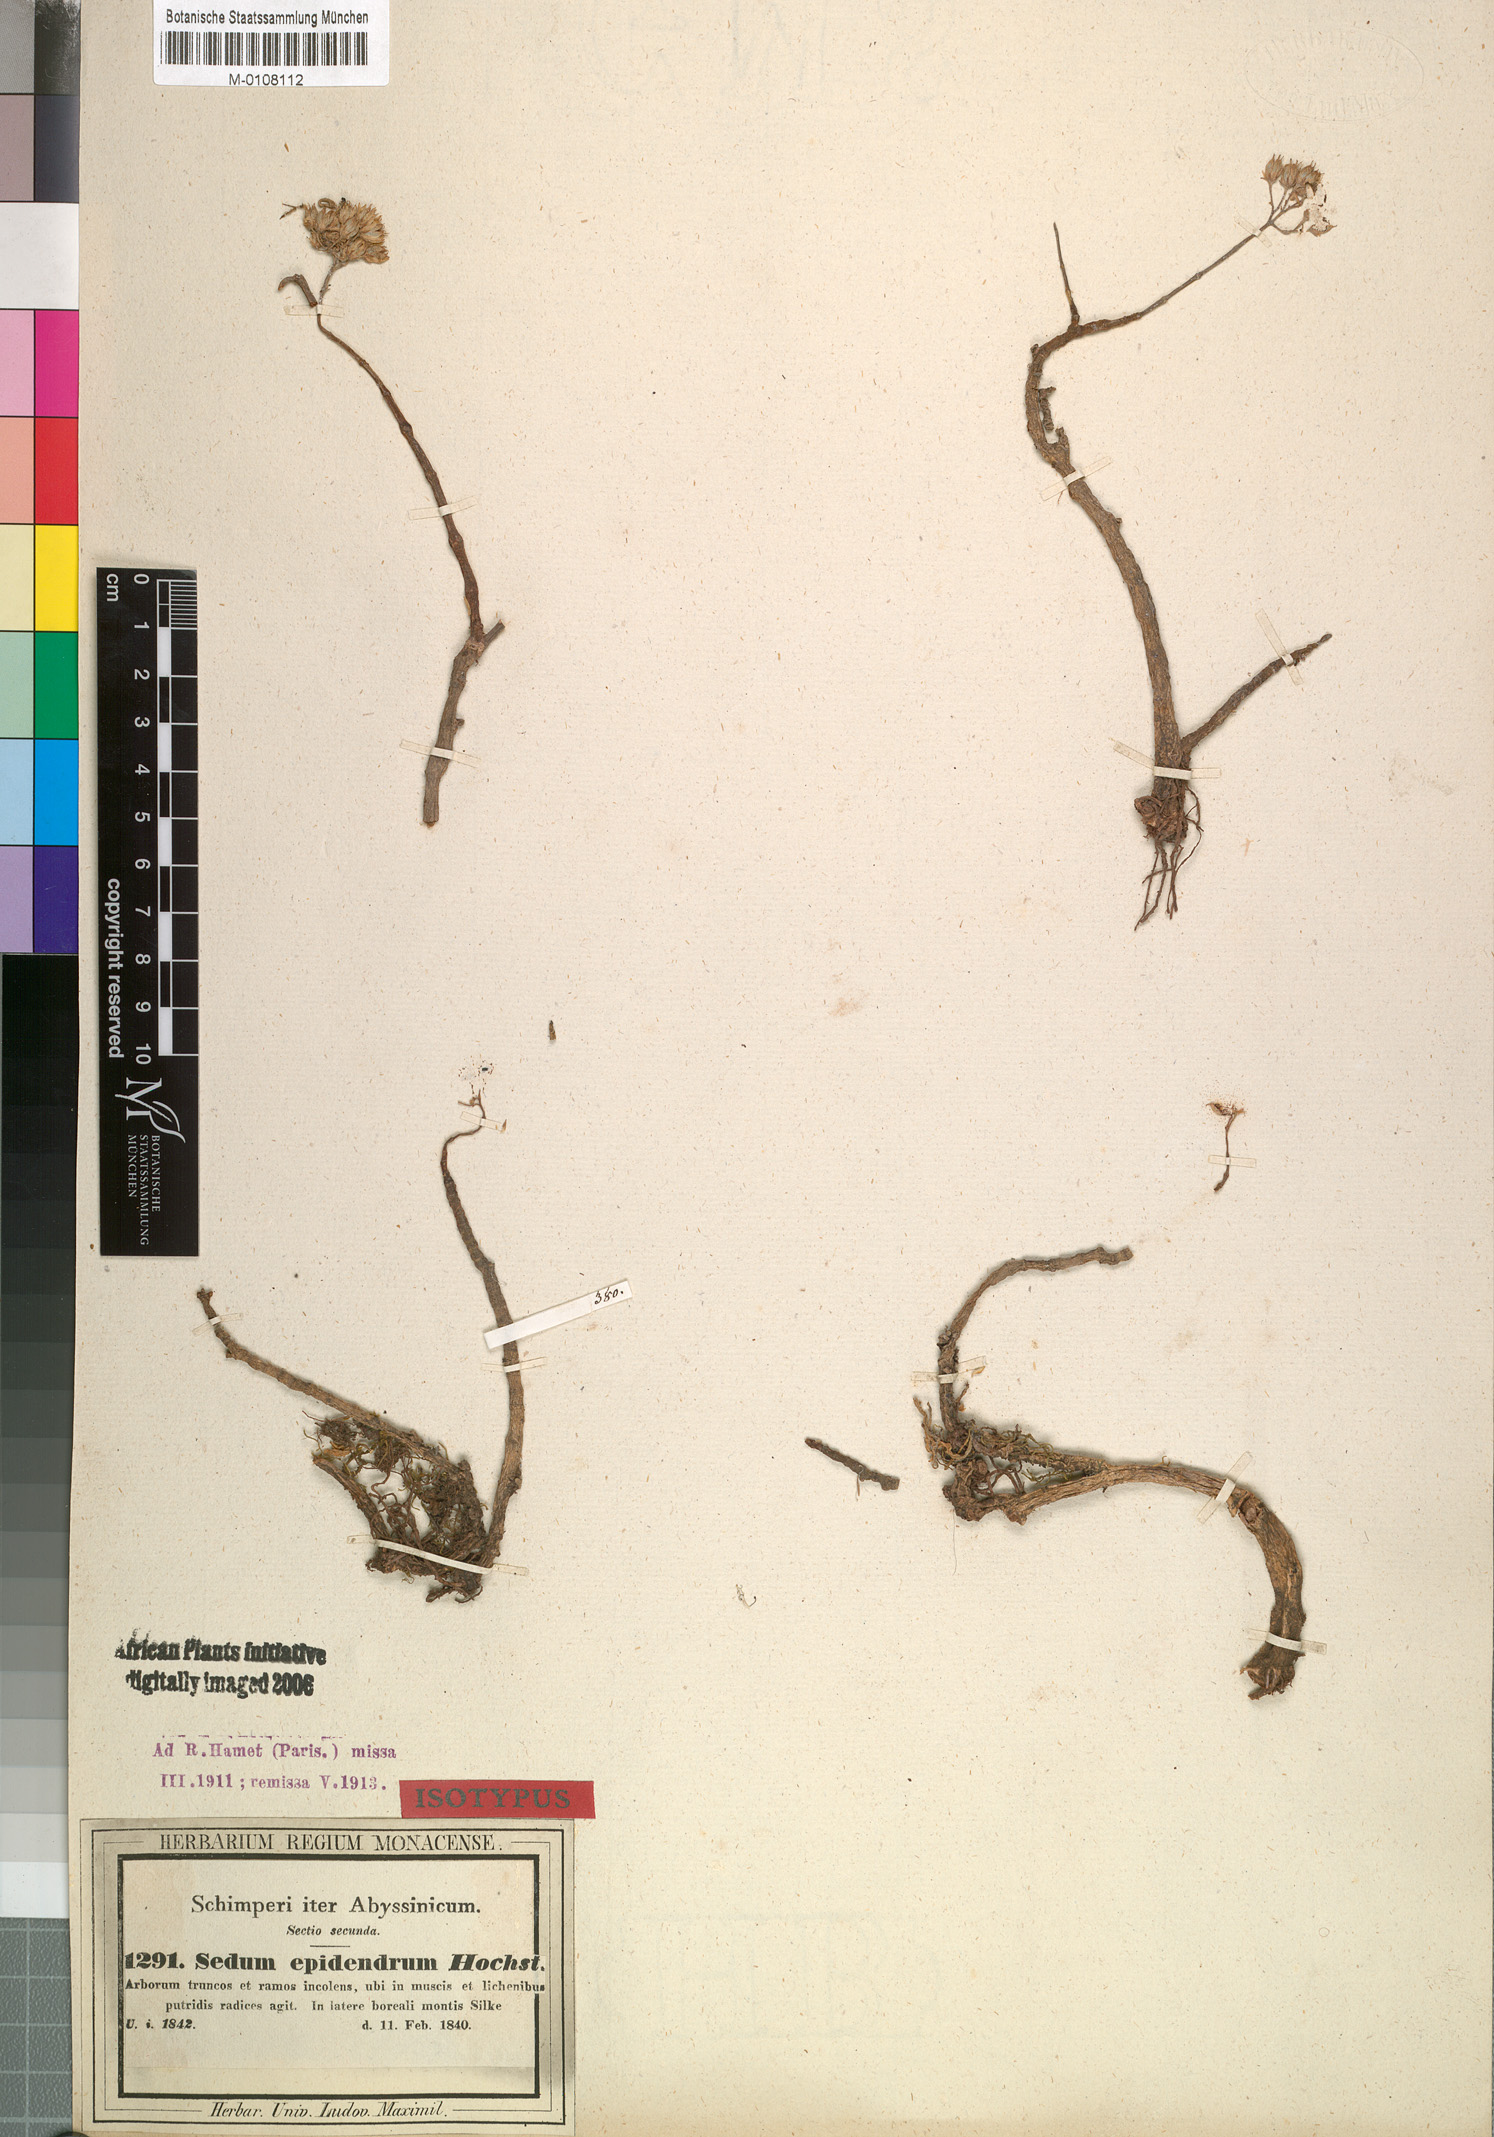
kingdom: Plantae
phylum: Tracheophyta
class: Magnoliopsida
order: Saxifragales
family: Crassulaceae
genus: Sedum
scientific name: Sedum epidendrum
